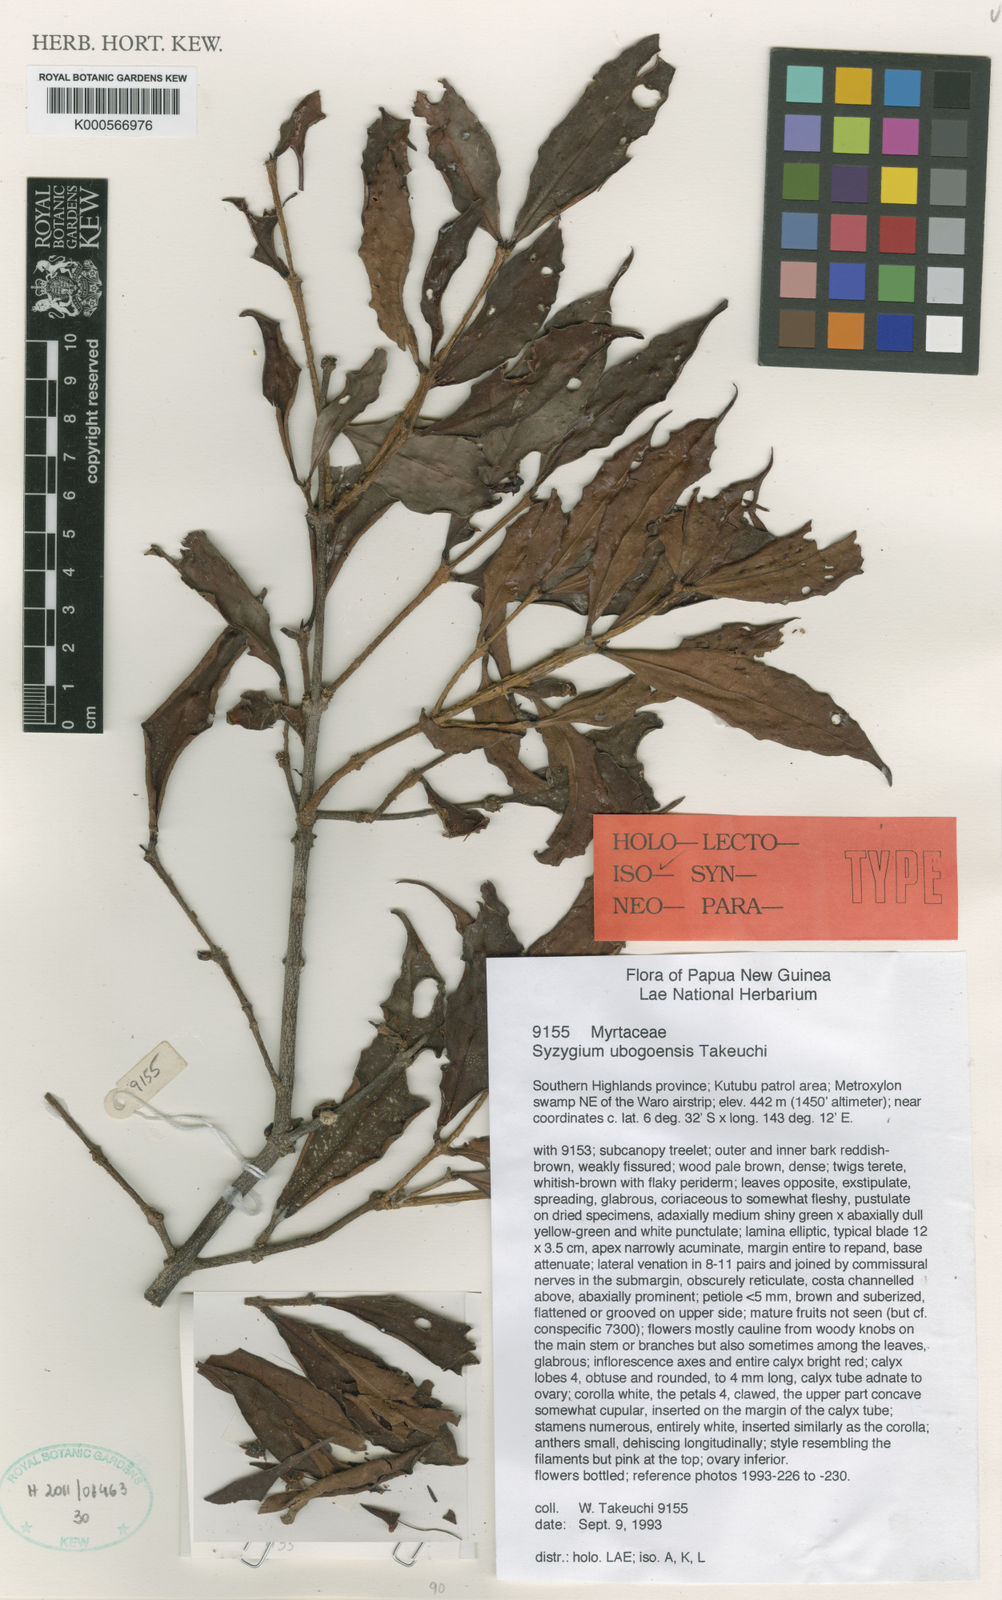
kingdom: Plantae
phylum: Tracheophyta
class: Magnoliopsida
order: Myrtales
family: Myrtaceae
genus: Syzygium
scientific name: Syzygium ubogoense
